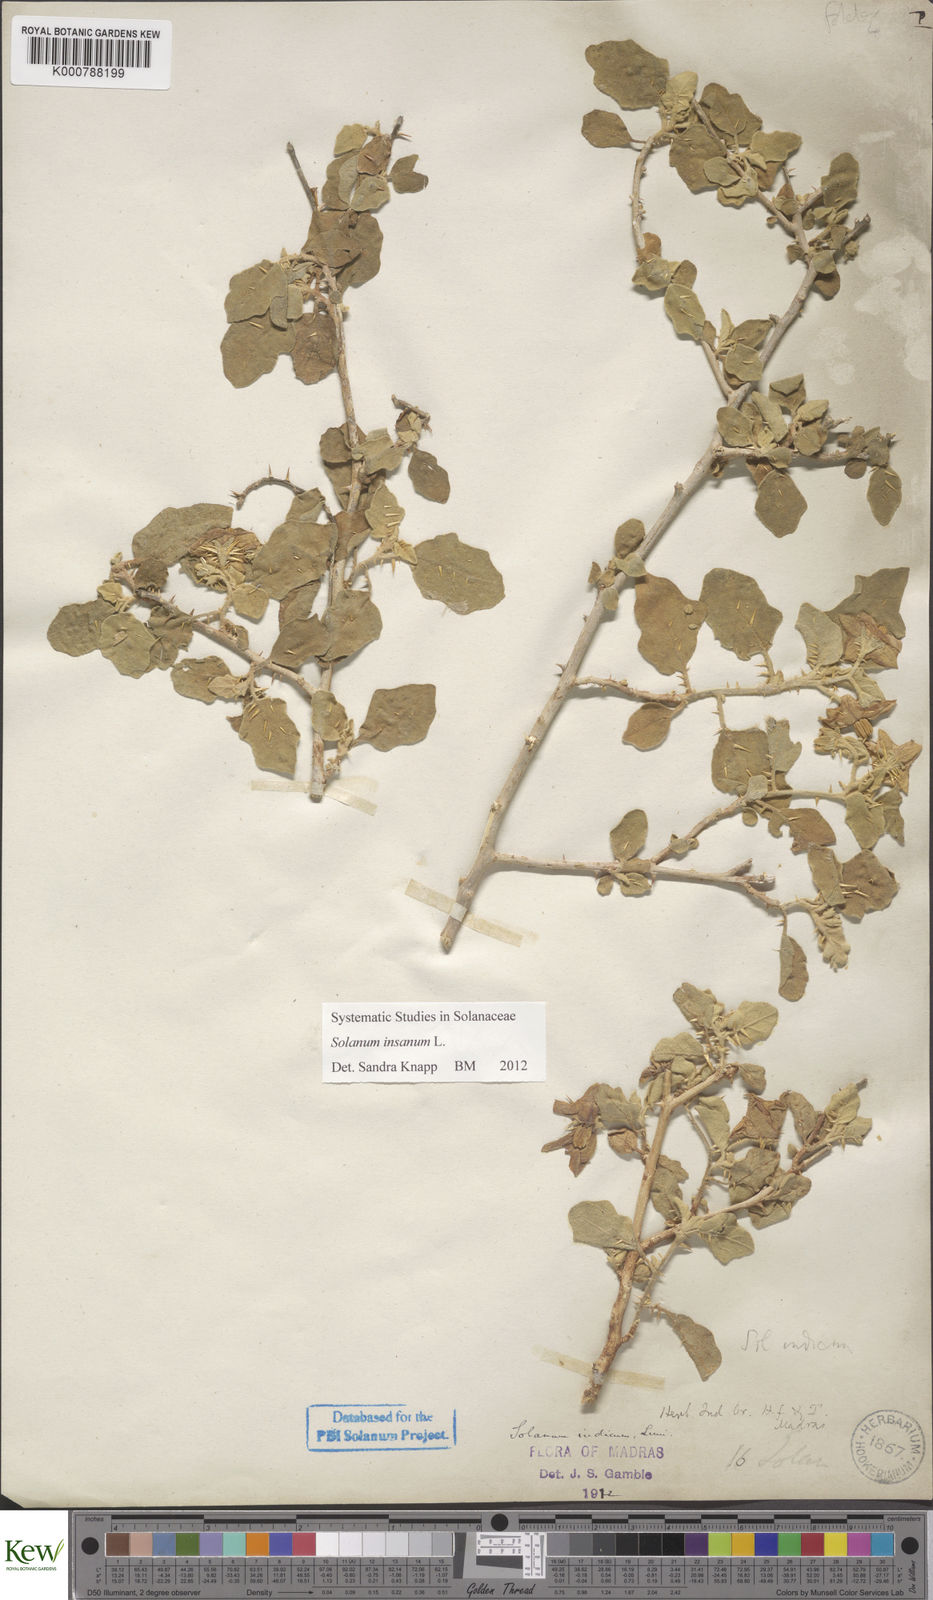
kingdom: Plantae
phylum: Tracheophyta
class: Magnoliopsida
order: Solanales
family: Solanaceae
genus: Solanum
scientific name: Solanum insanum
